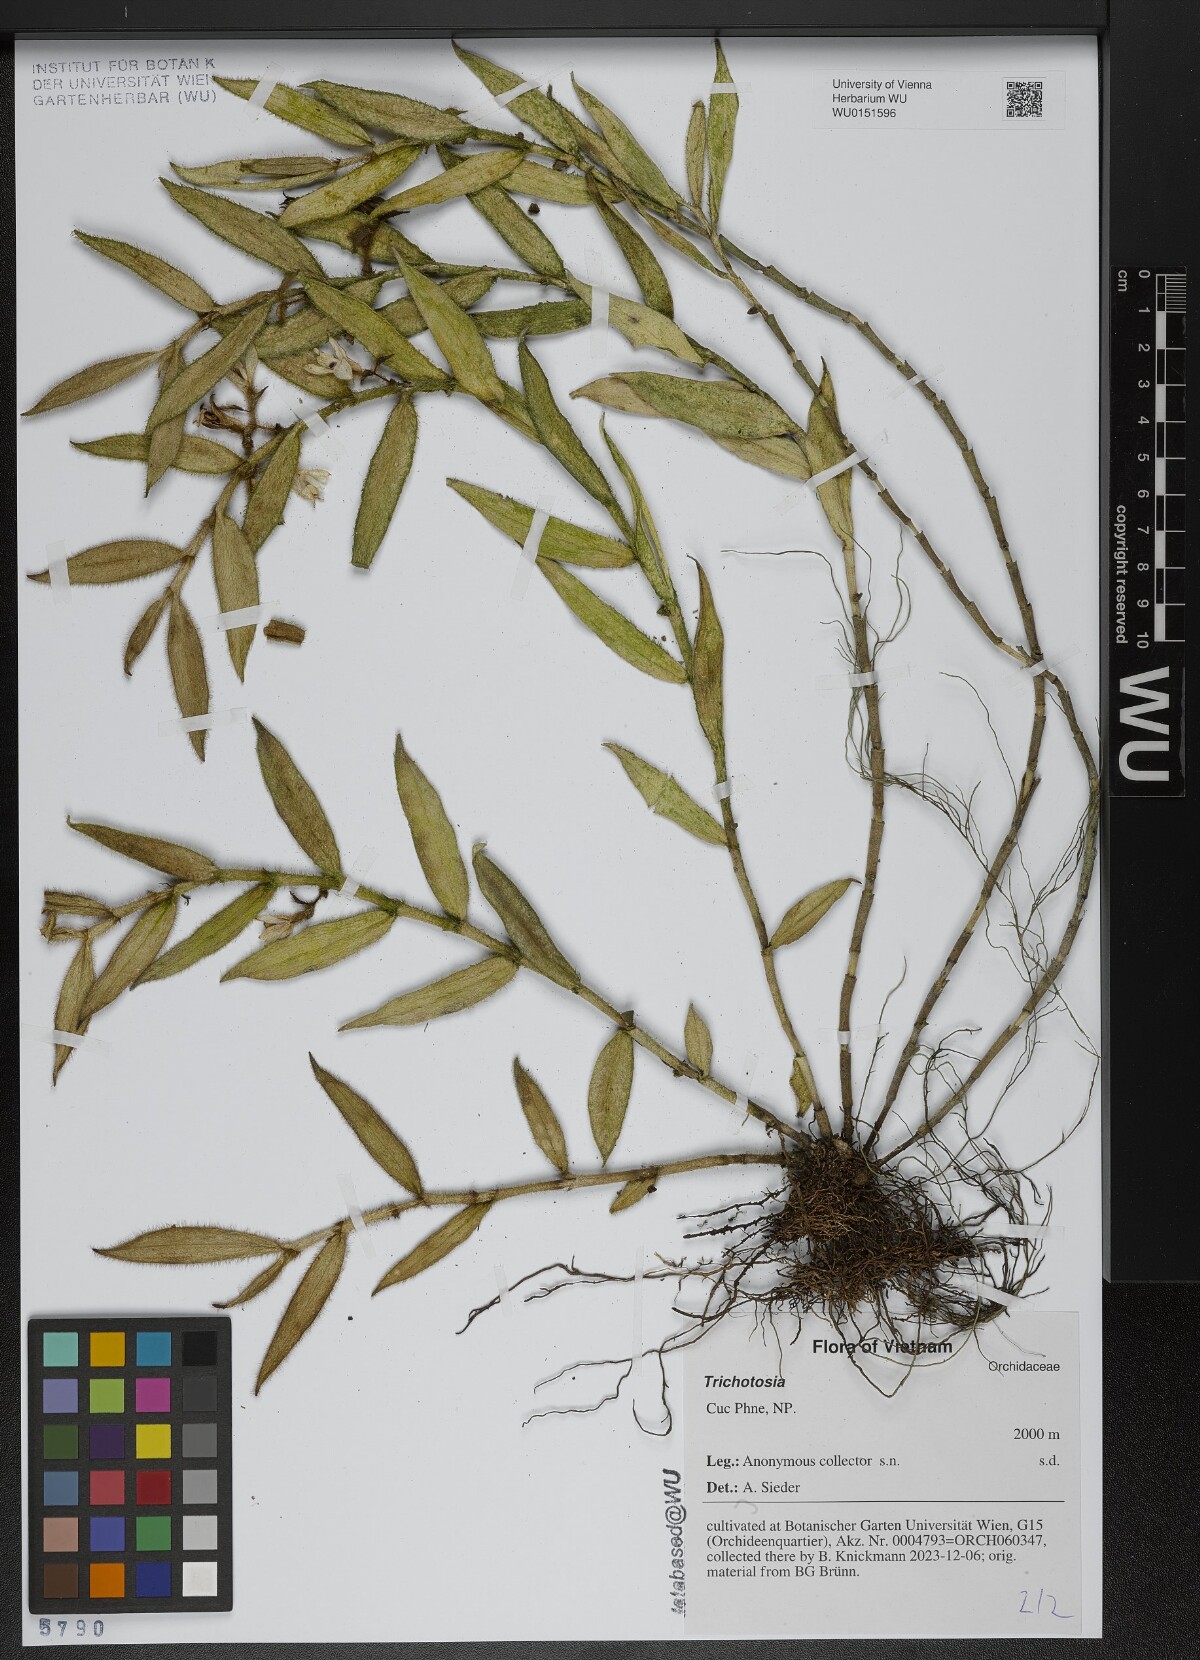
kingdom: Plantae
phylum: Tracheophyta
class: Liliopsida
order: Asparagales
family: Orchidaceae
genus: Trichotosia
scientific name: Trichotosia
